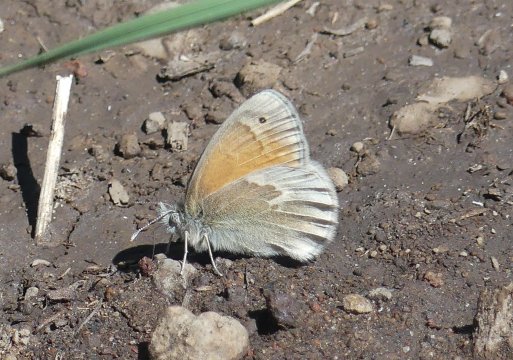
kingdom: Animalia
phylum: Arthropoda
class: Insecta
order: Lepidoptera
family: Nymphalidae
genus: Coenonympha
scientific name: Coenonympha tullia
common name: Large Heath
